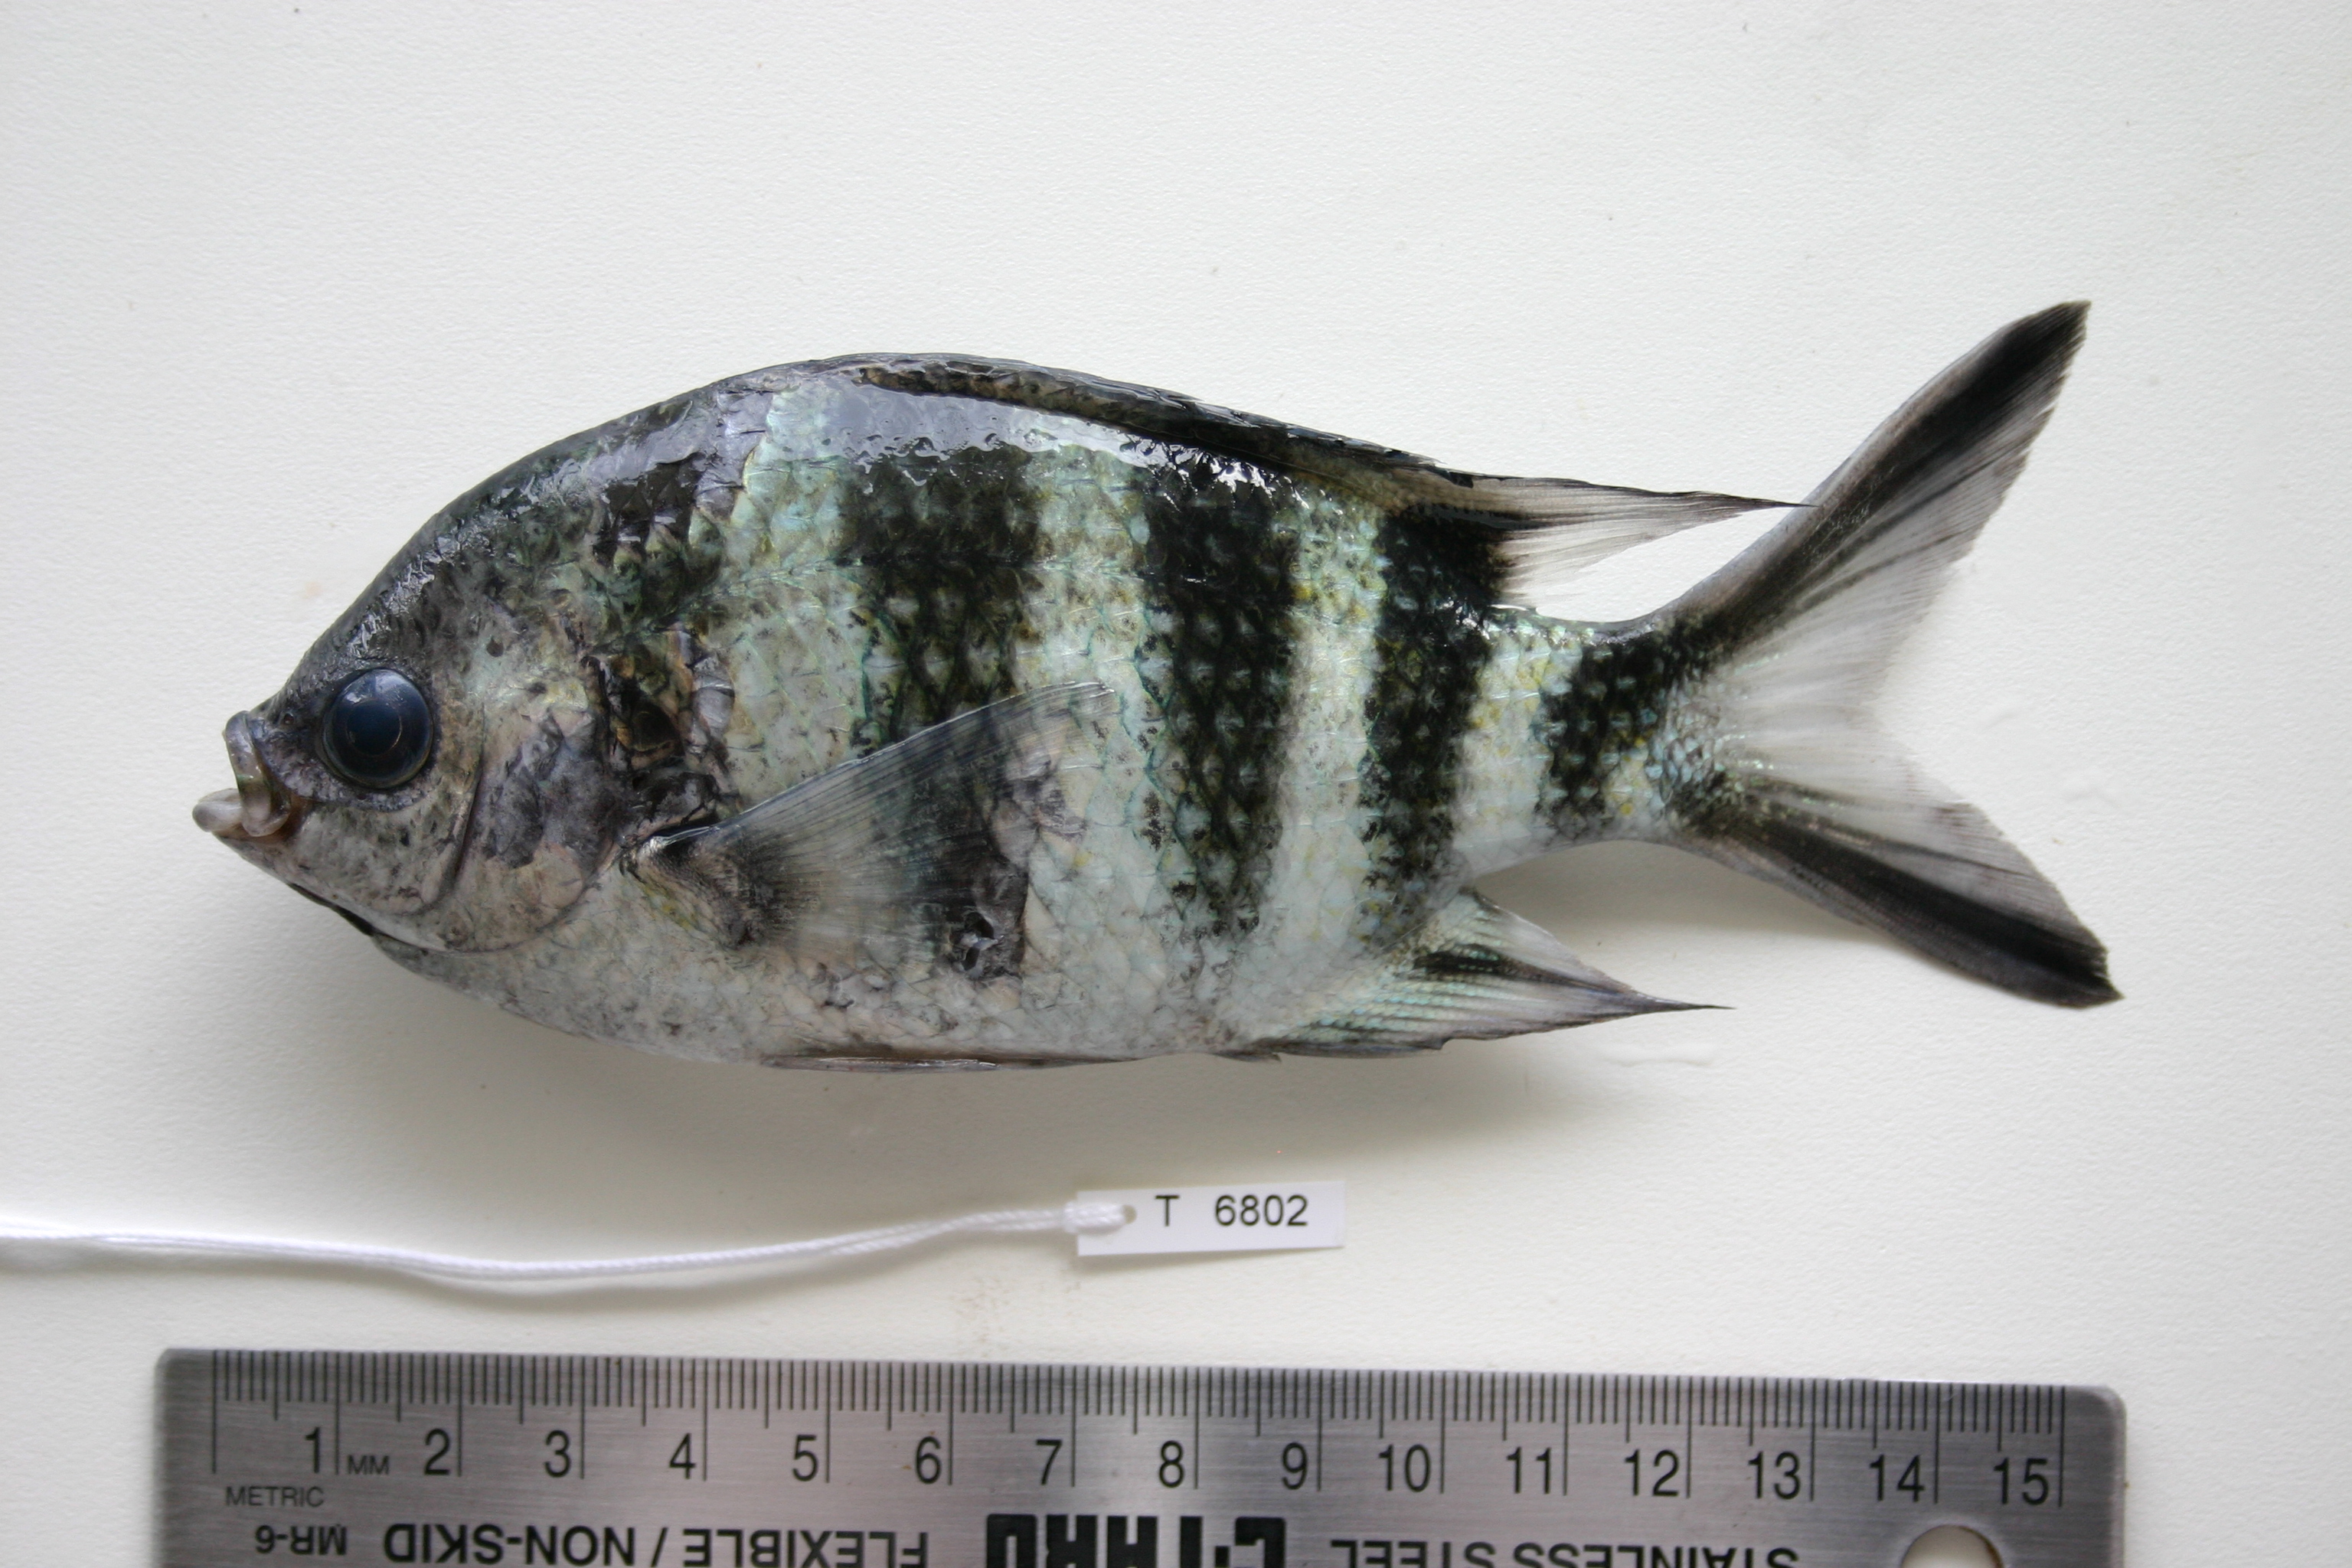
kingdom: Animalia
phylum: Chordata
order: Perciformes
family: Pomacentridae
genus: Abudefduf
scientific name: Abudefduf sexfasciatus
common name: Scissortail sergeant
